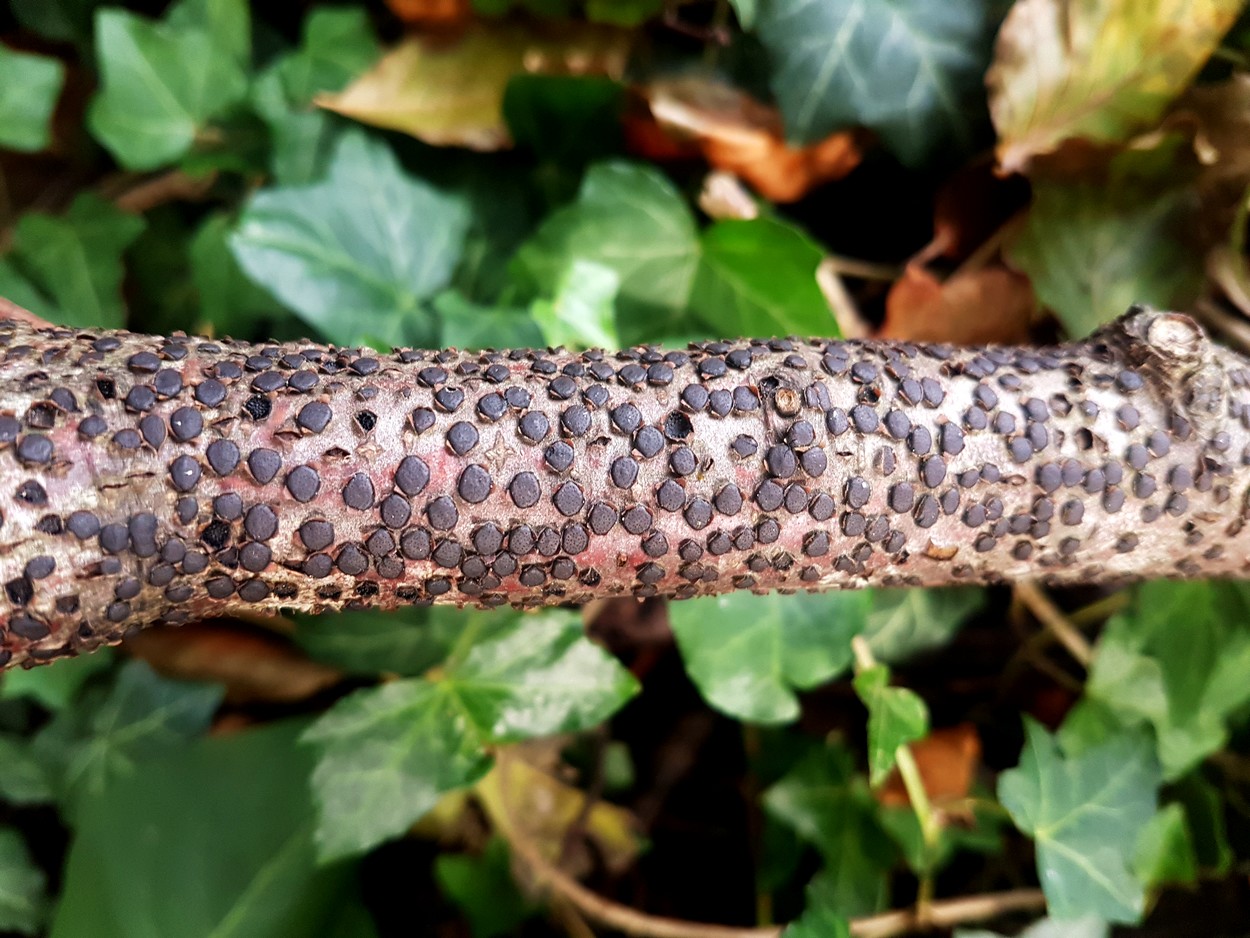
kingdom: Fungi
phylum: Ascomycota
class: Sordariomycetes
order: Xylariales
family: Diatrypaceae
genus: Diatrype
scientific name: Diatrype disciformis
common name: kant-kulskorpe
